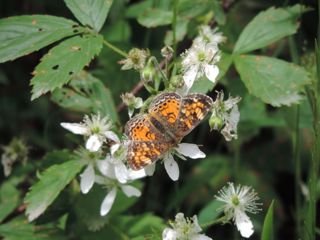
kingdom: Animalia
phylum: Arthropoda
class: Insecta
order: Lepidoptera
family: Nymphalidae
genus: Phyciodes
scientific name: Phyciodes tharos
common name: Northern Crescent
